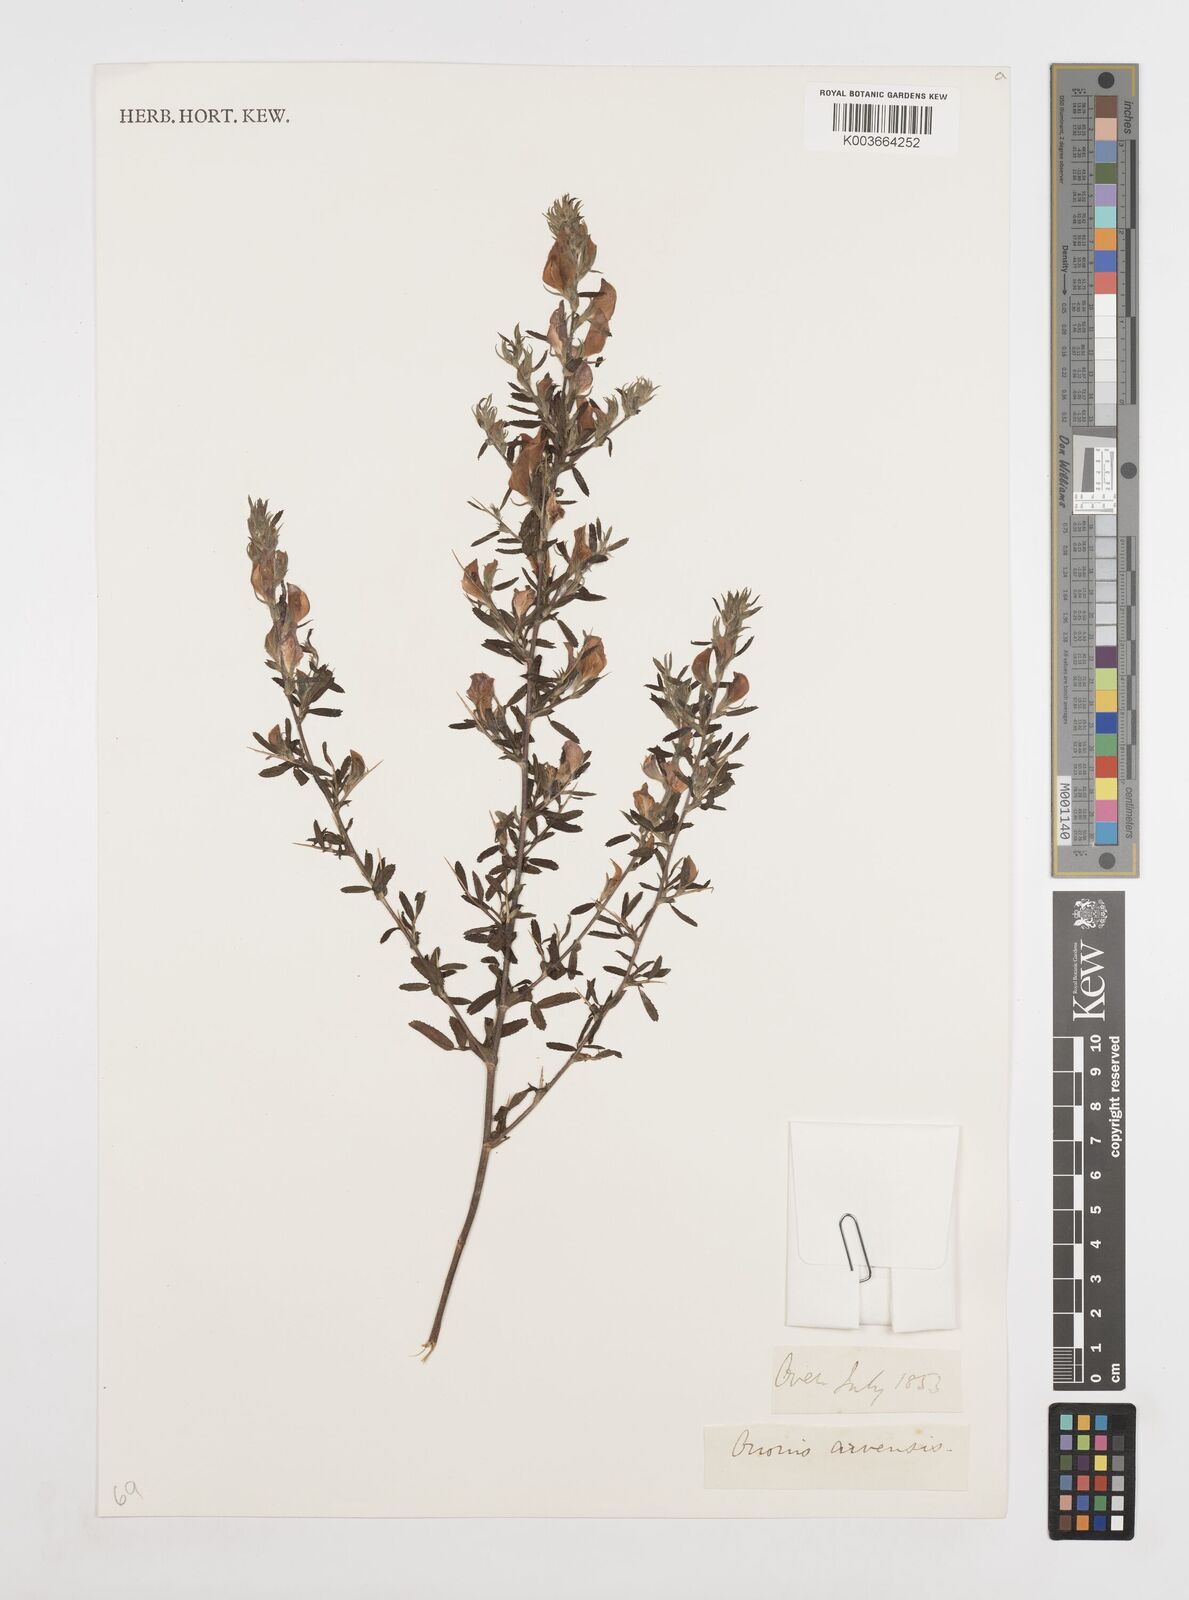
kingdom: Plantae
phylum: Tracheophyta
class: Magnoliopsida
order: Fabales
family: Fabaceae
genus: Ononis
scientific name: Ononis spinosa
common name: Spiny restharrow
